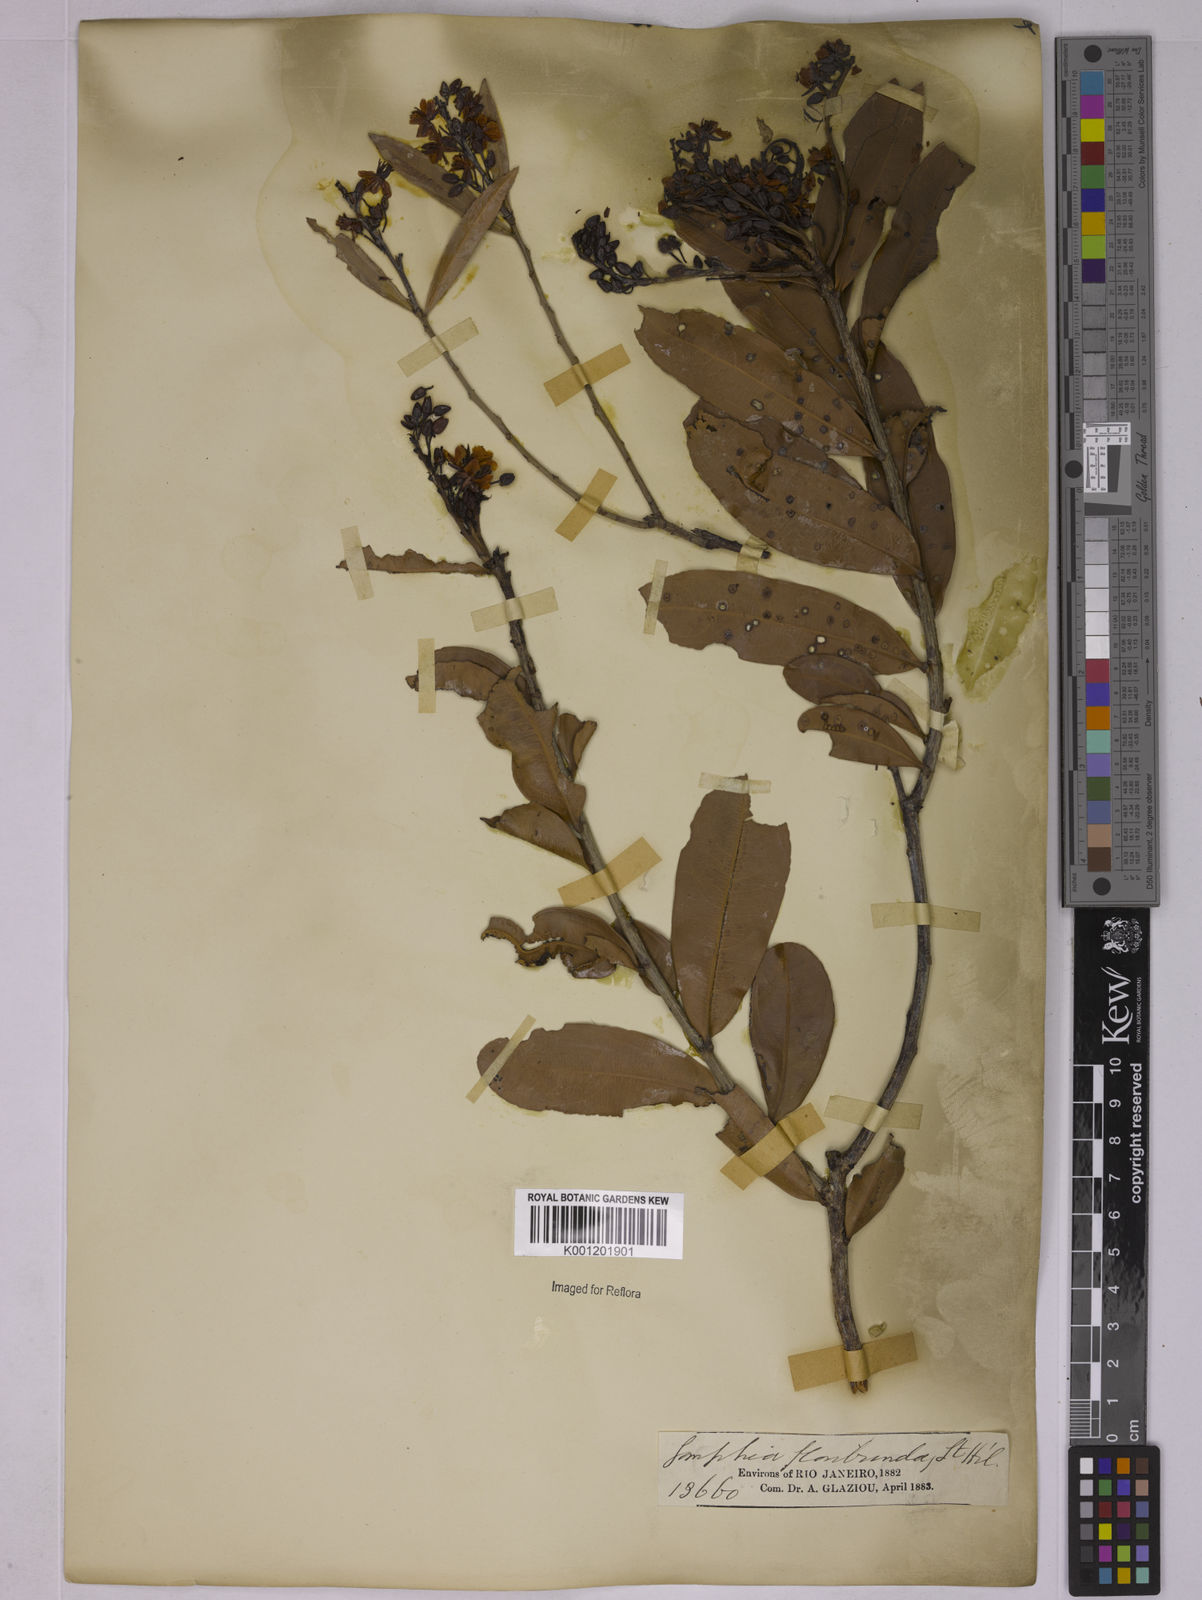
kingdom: Plantae
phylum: Tracheophyta
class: Magnoliopsida
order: Malpighiales
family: Ochnaceae
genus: Ouratea
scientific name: Ouratea floribunda
